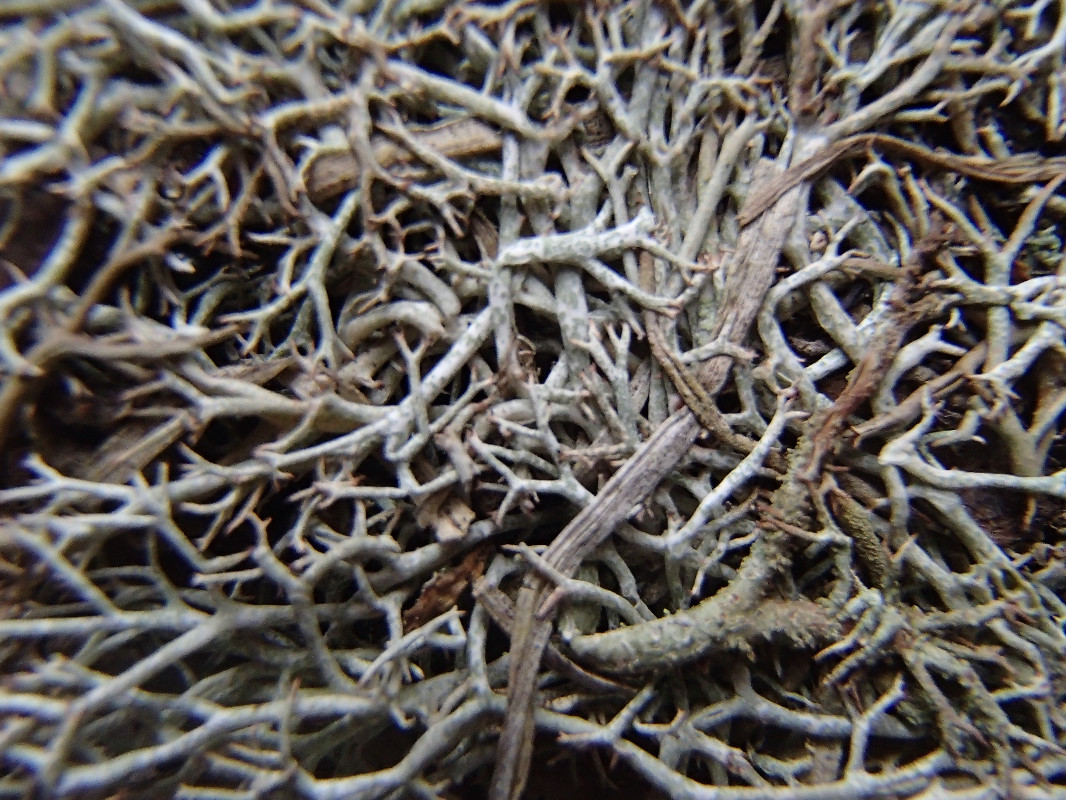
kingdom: Fungi
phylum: Ascomycota
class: Lecanoromycetes
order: Lecanorales
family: Cladoniaceae
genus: Cladonia
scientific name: Cladonia furcata
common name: kløftet bægerlav
